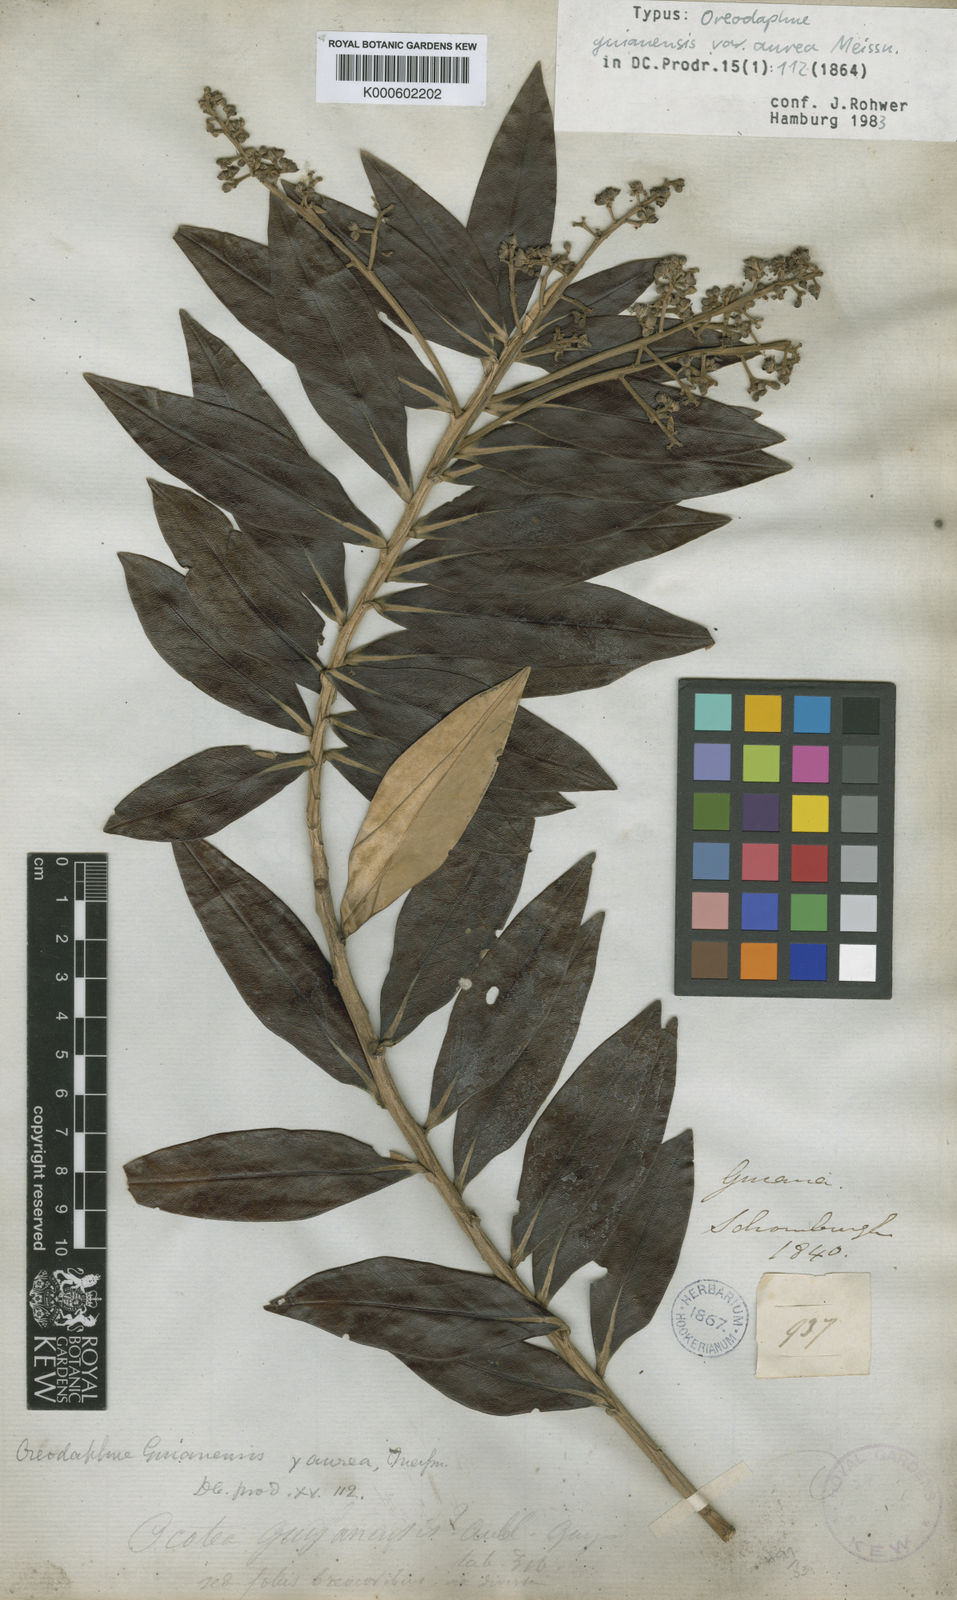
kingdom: Plantae
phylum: Tracheophyta
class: Magnoliopsida
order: Laurales
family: Lauraceae
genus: Ocotea
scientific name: Ocotea guianensis
